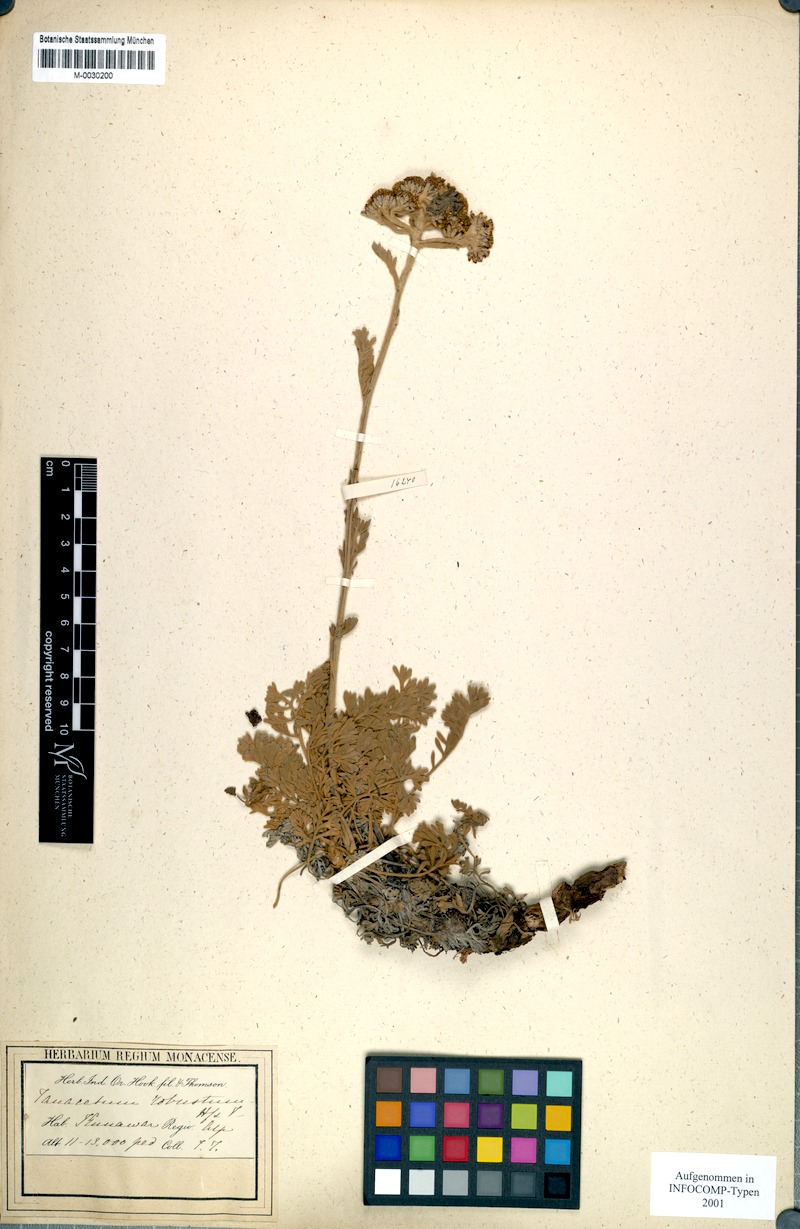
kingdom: Plantae
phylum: Tracheophyta
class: Magnoliopsida
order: Asterales
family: Asteraceae
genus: Hippolytia
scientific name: Hippolytia senecionis
